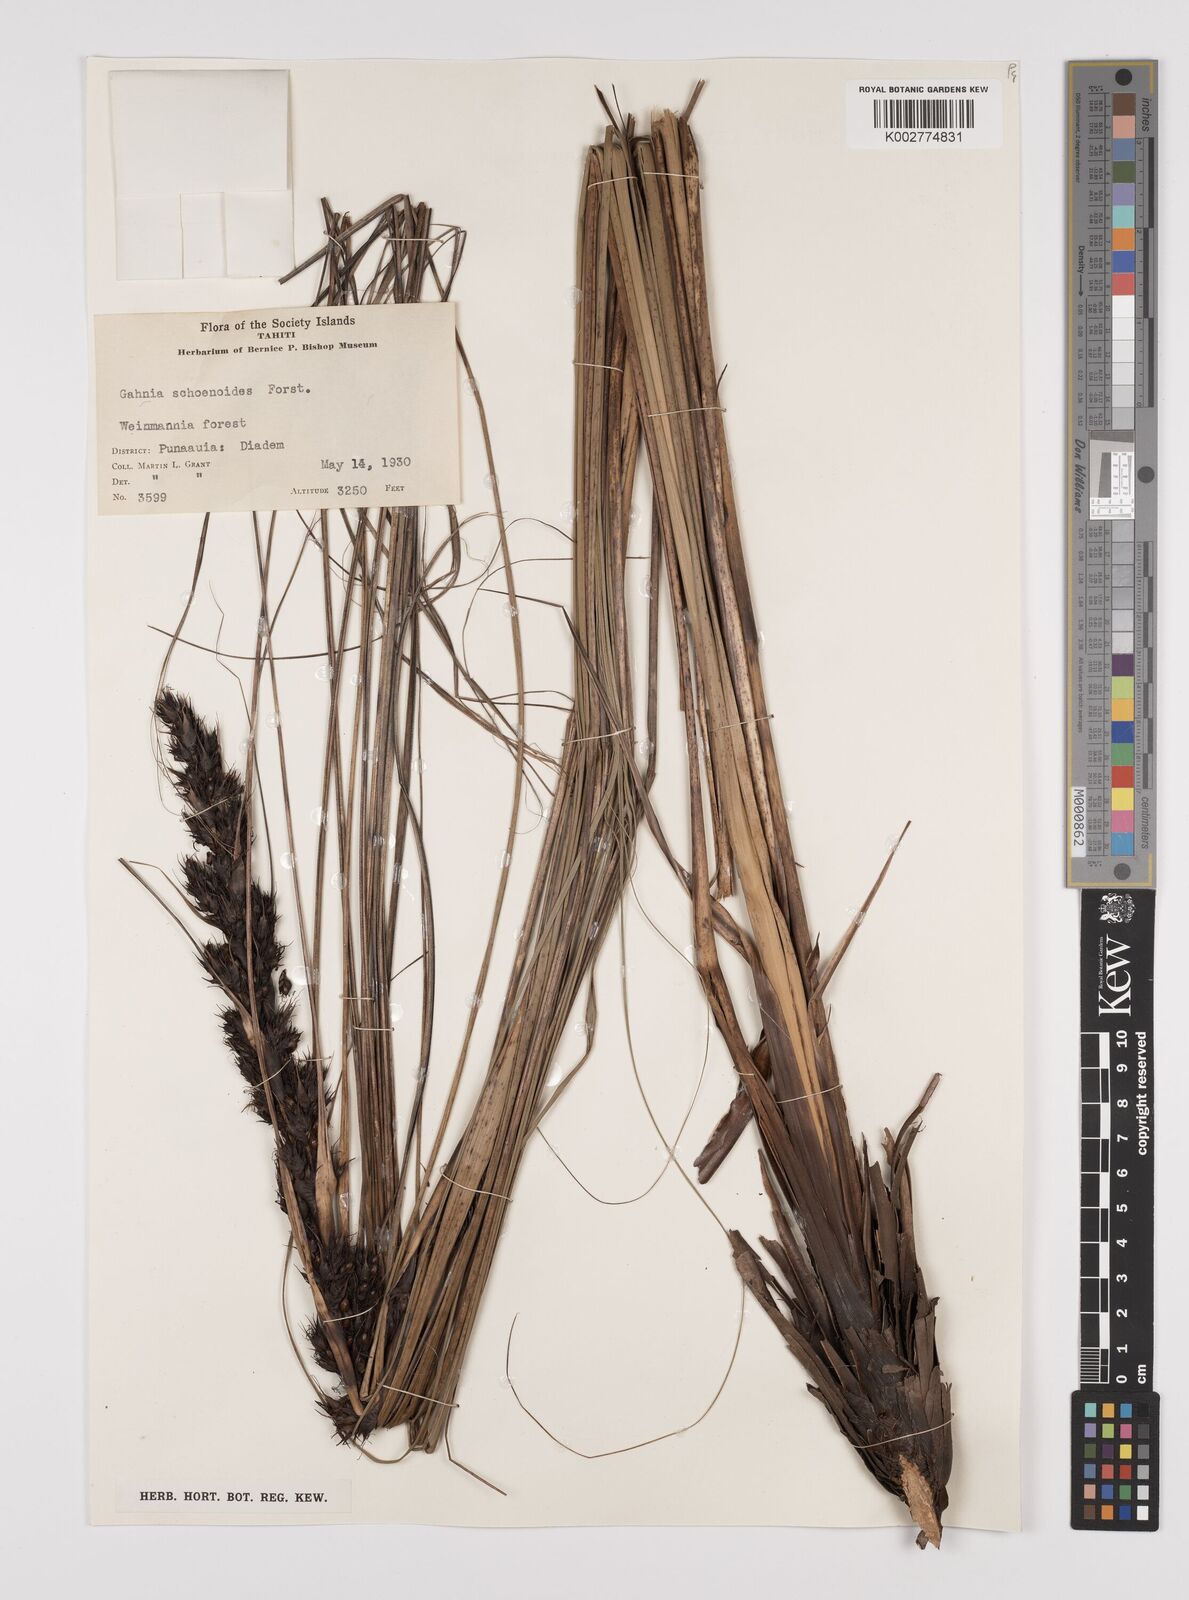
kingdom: Plantae
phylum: Tracheophyta
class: Liliopsida
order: Poales
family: Cyperaceae
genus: Gahnia
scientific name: Gahnia schoenoides
